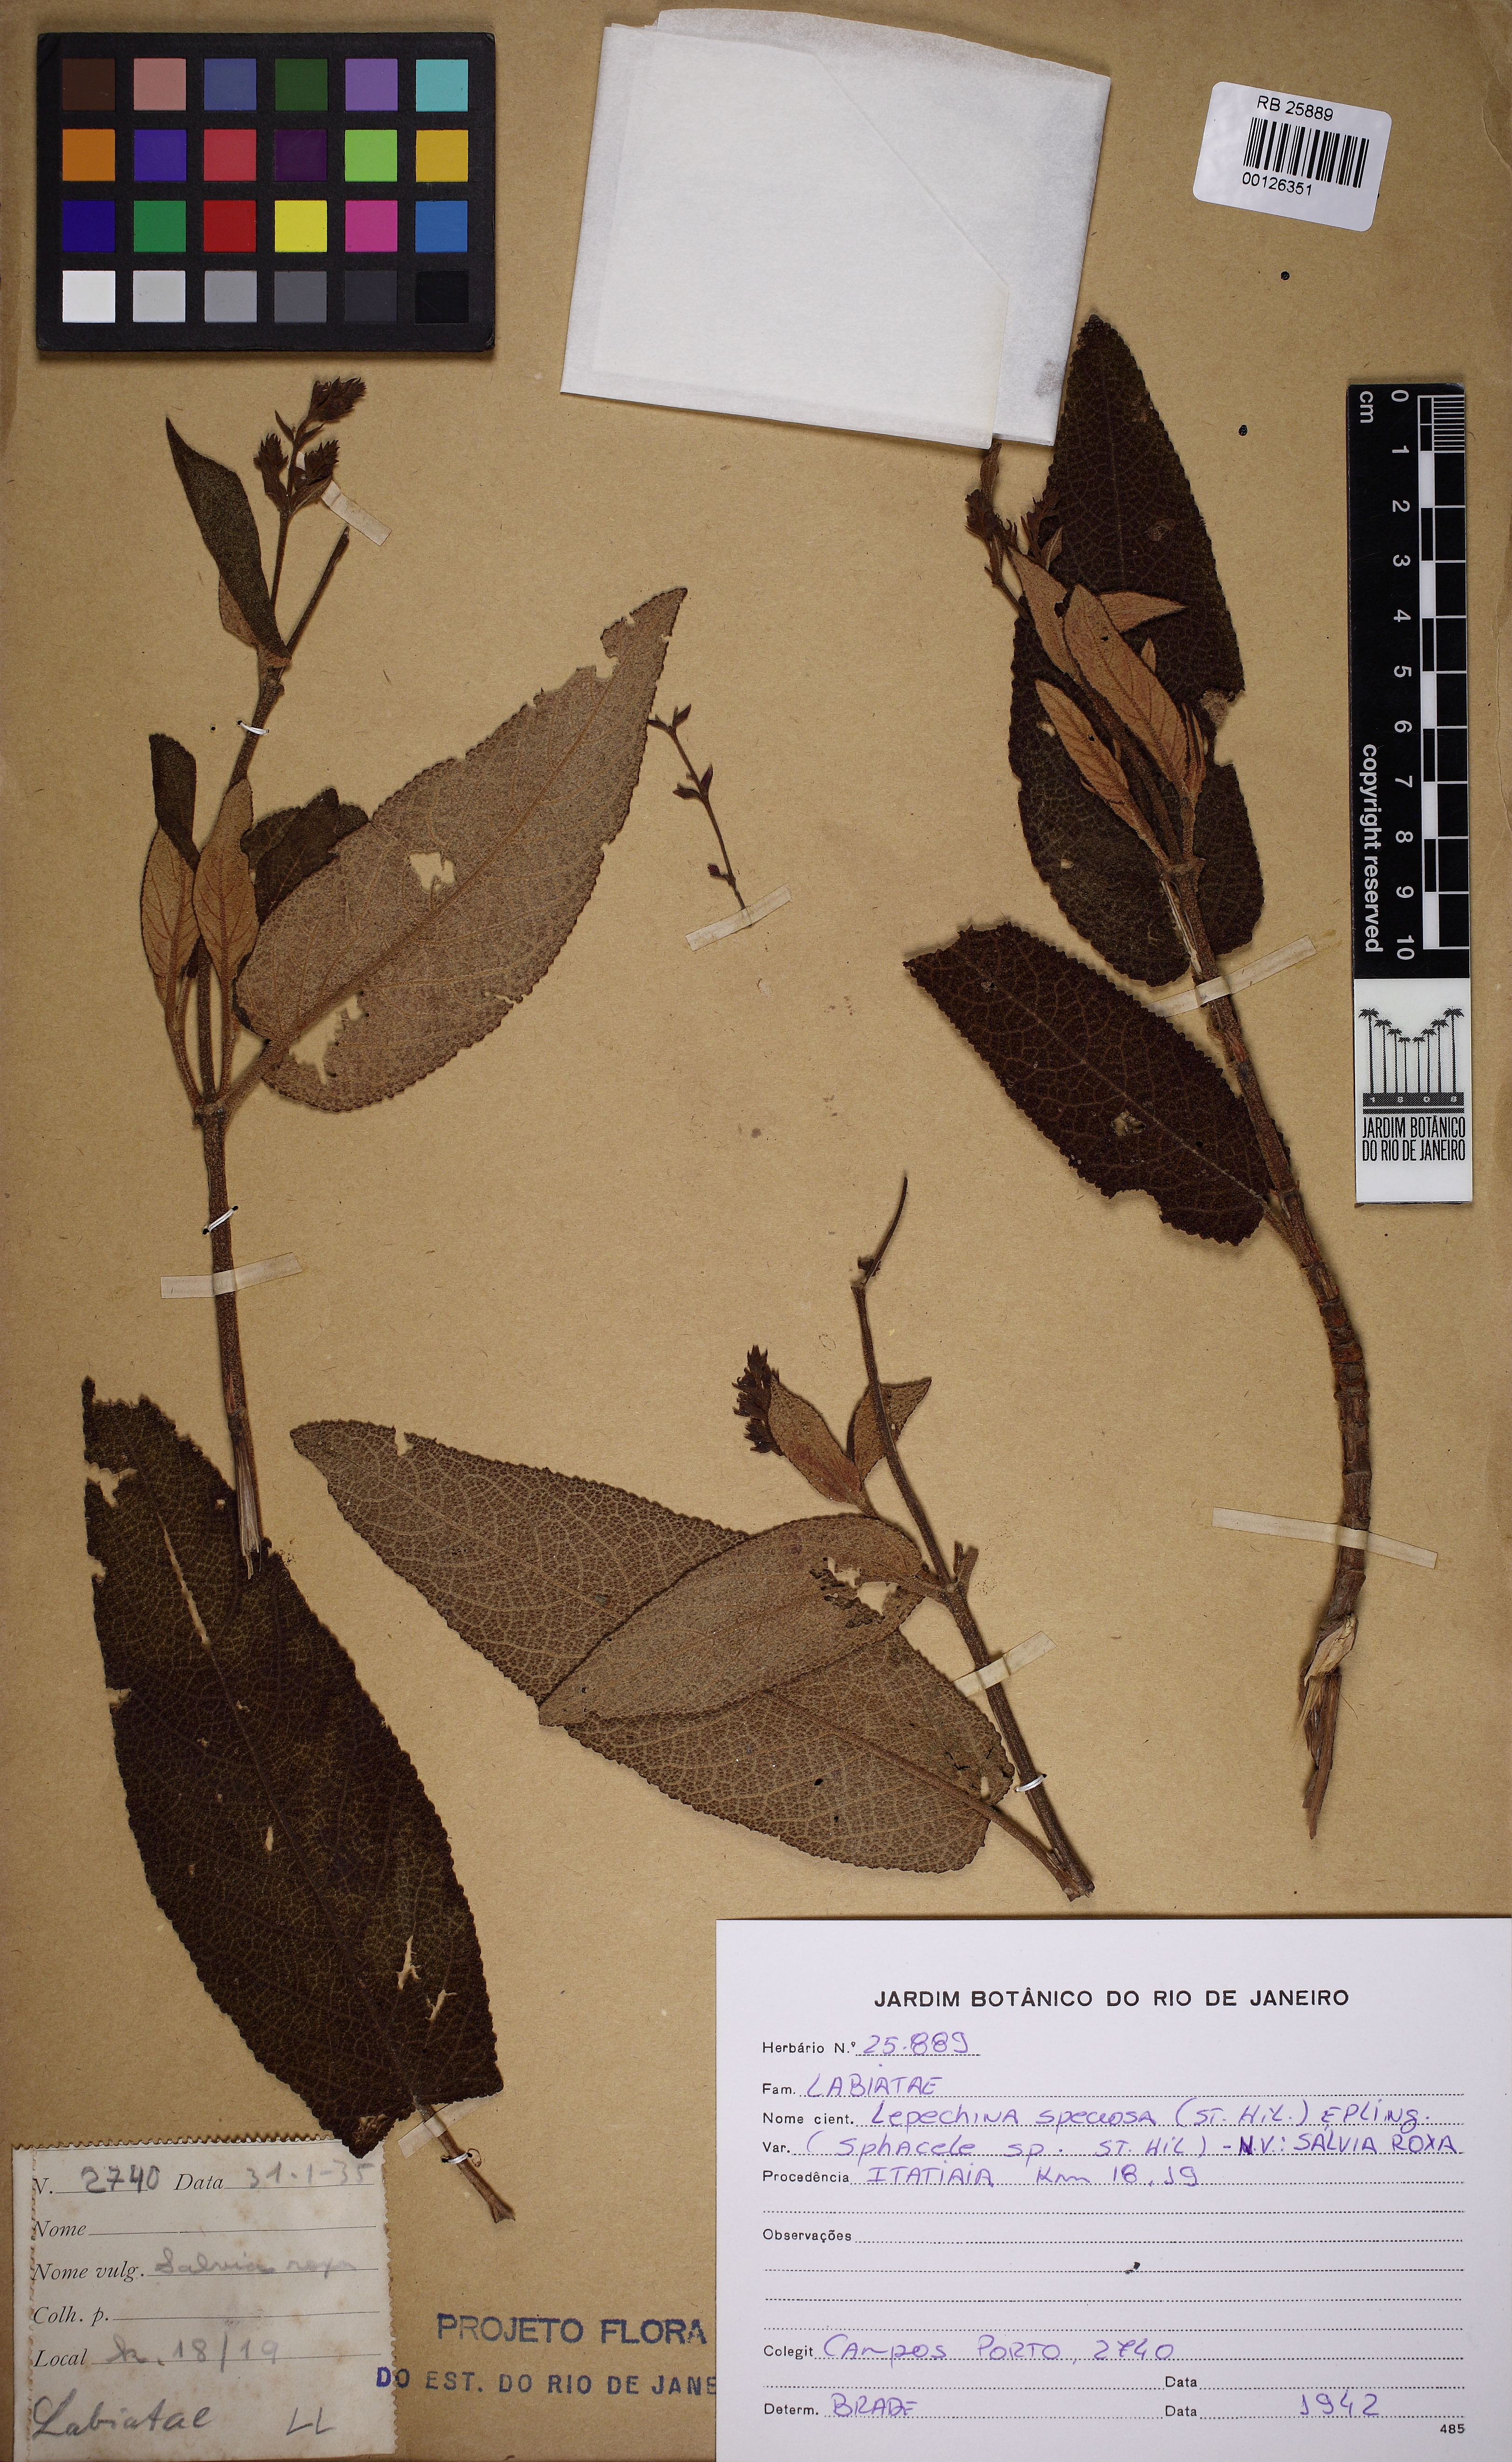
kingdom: Plantae
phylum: Tracheophyta
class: Magnoliopsida
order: Lamiales
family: Lamiaceae
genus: Lepechinia
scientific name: Lepechinia speciosa
